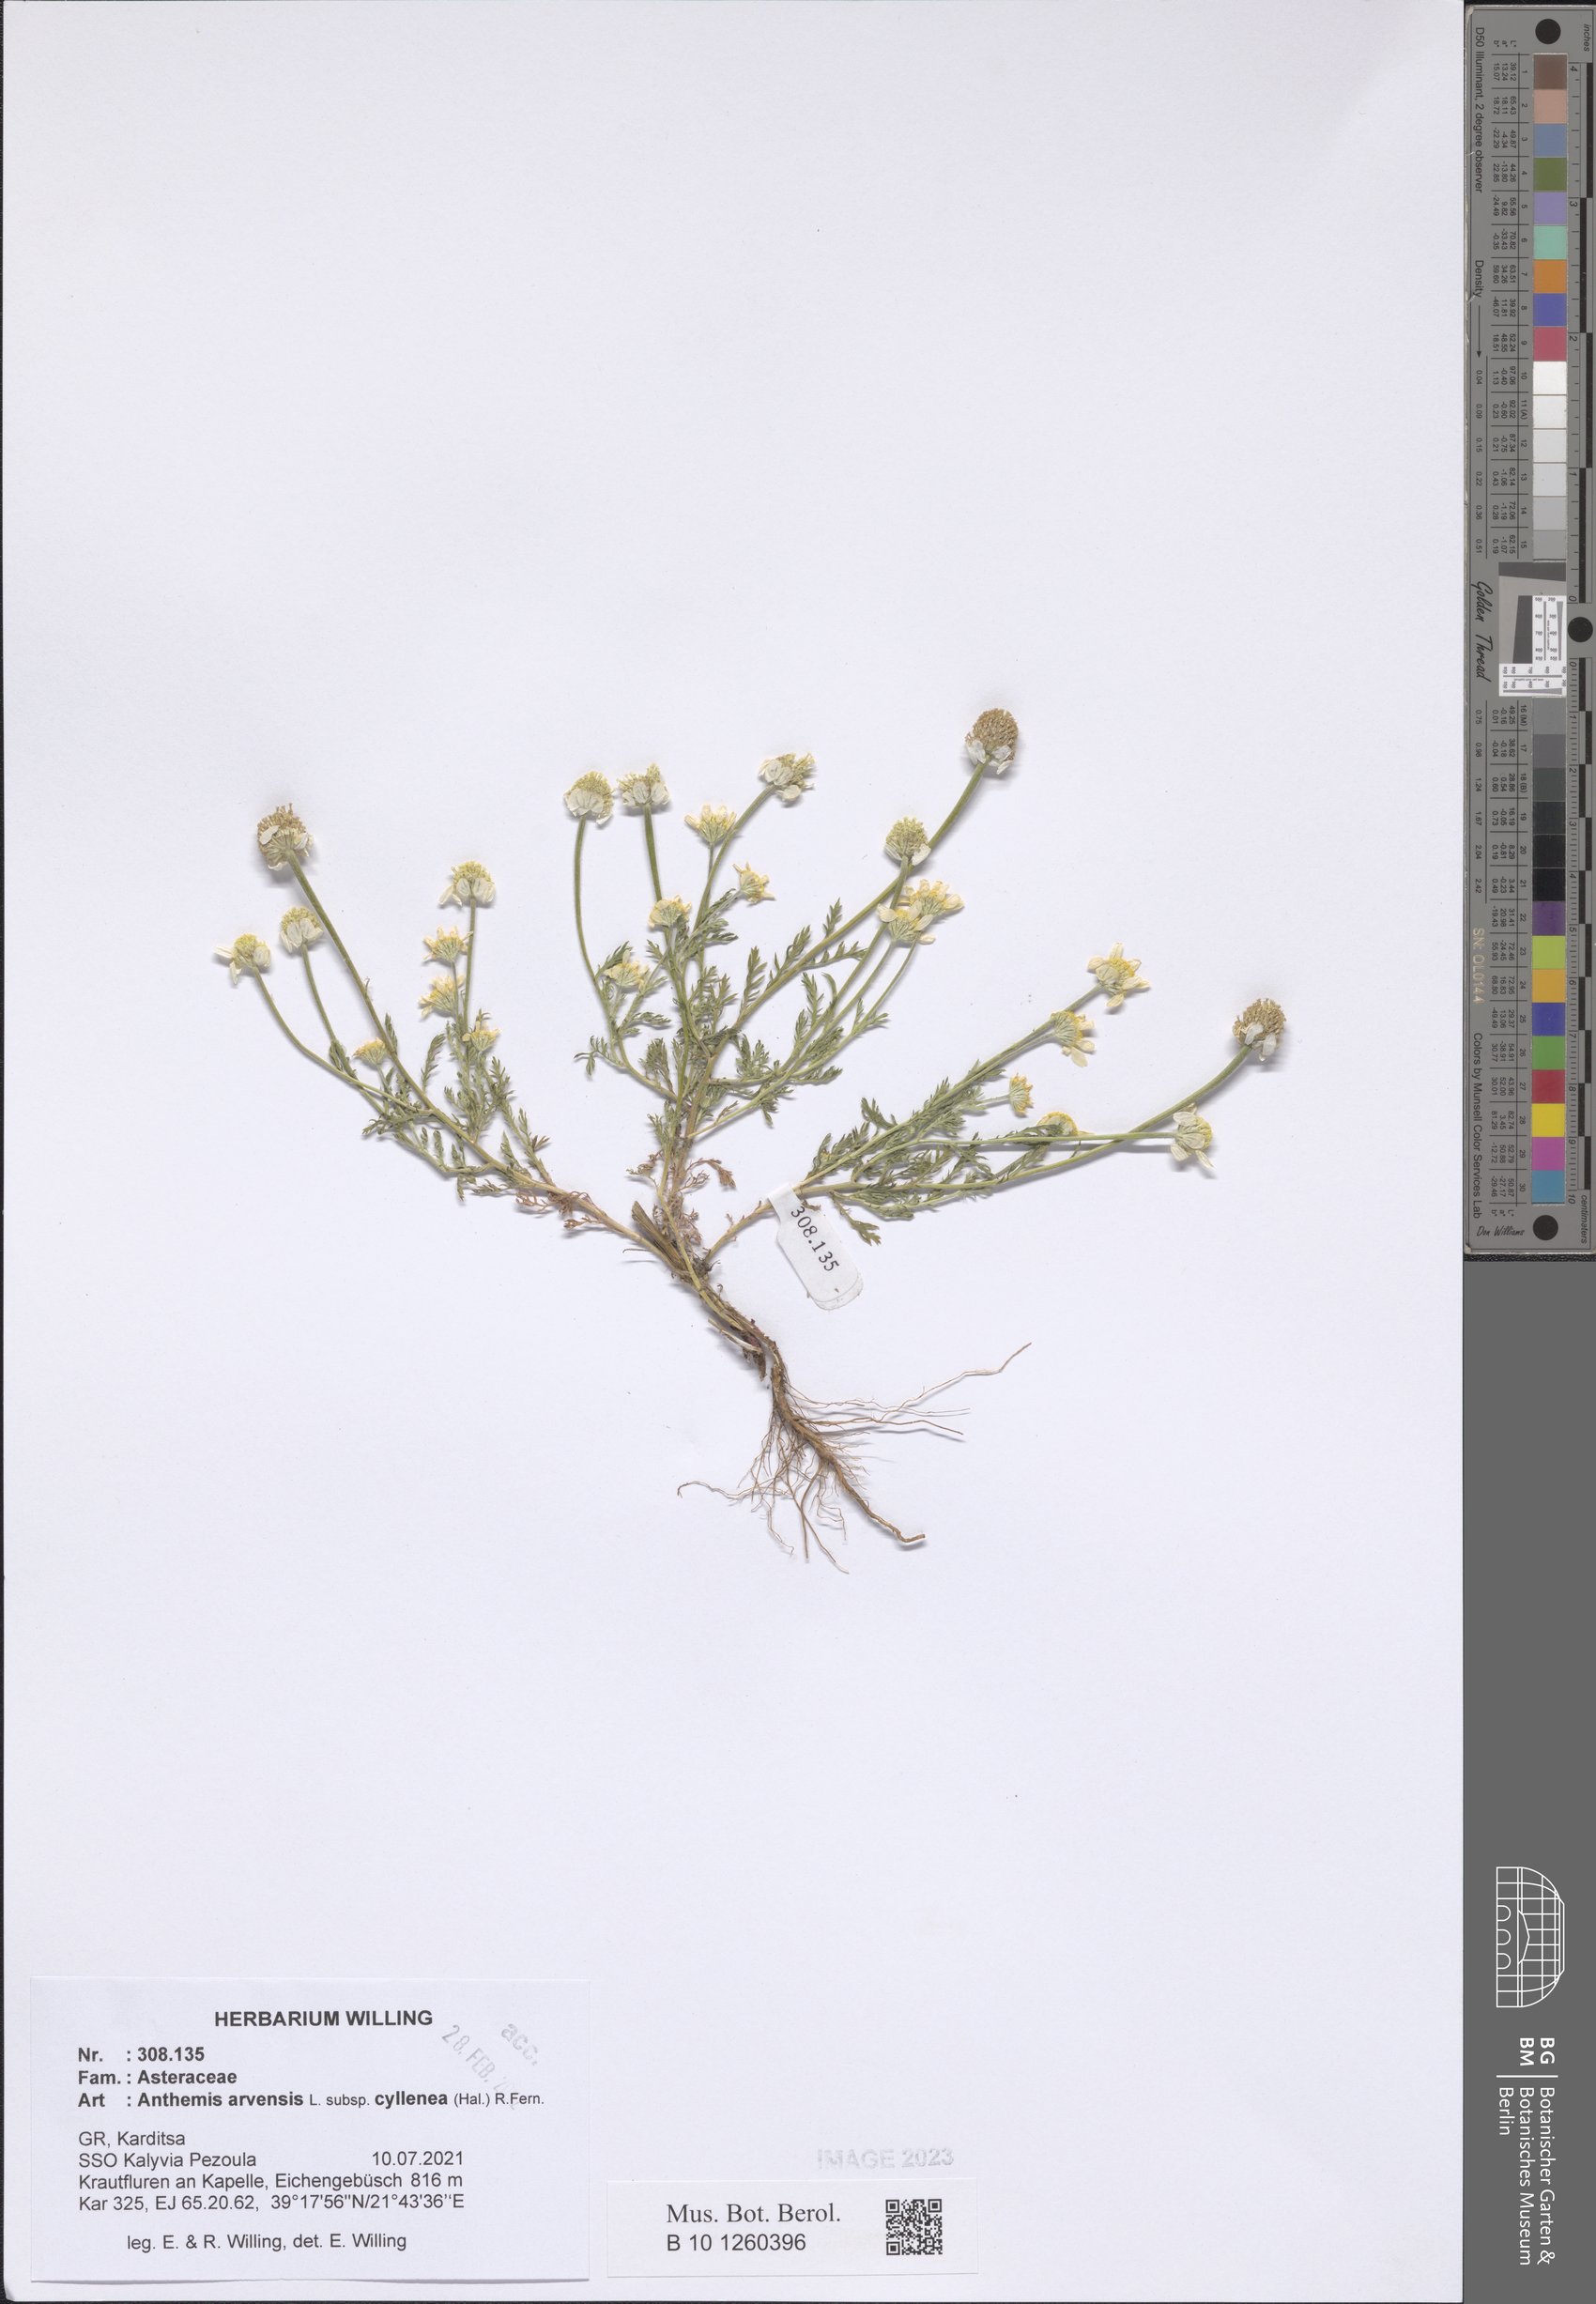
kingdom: Plantae
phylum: Tracheophyta
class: Magnoliopsida
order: Asterales
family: Asteraceae
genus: Anthemis
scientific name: Anthemis arvensis
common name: Corn chamomile
